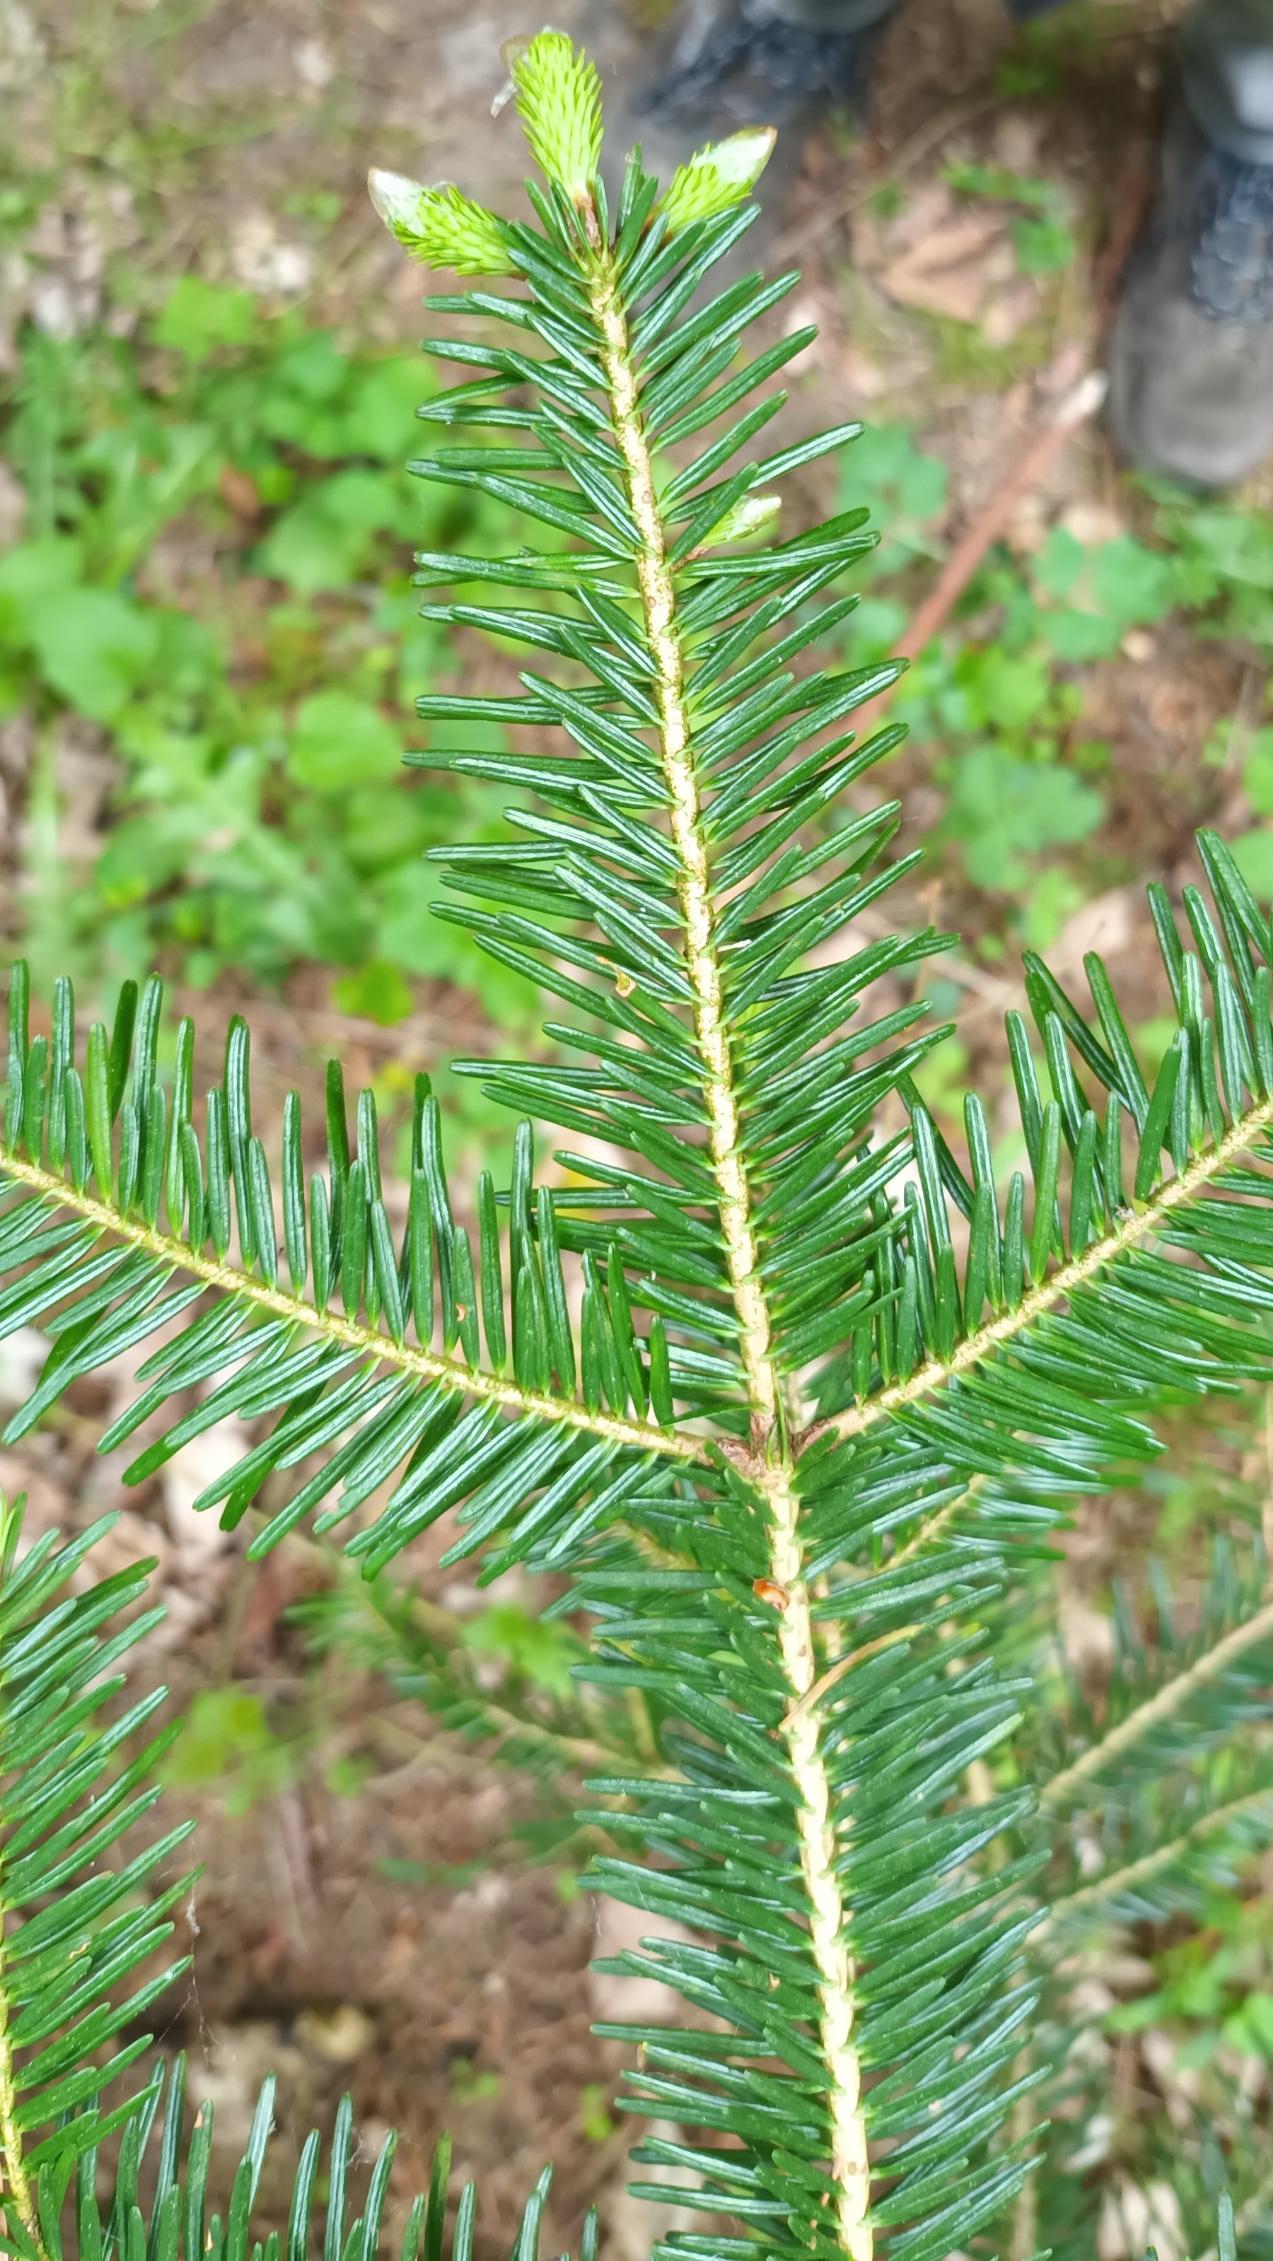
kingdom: Plantae
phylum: Tracheophyta
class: Pinopsida
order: Pinales
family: Pinaceae
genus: Abies
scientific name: Abies alba
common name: Almindelig ædelgran
